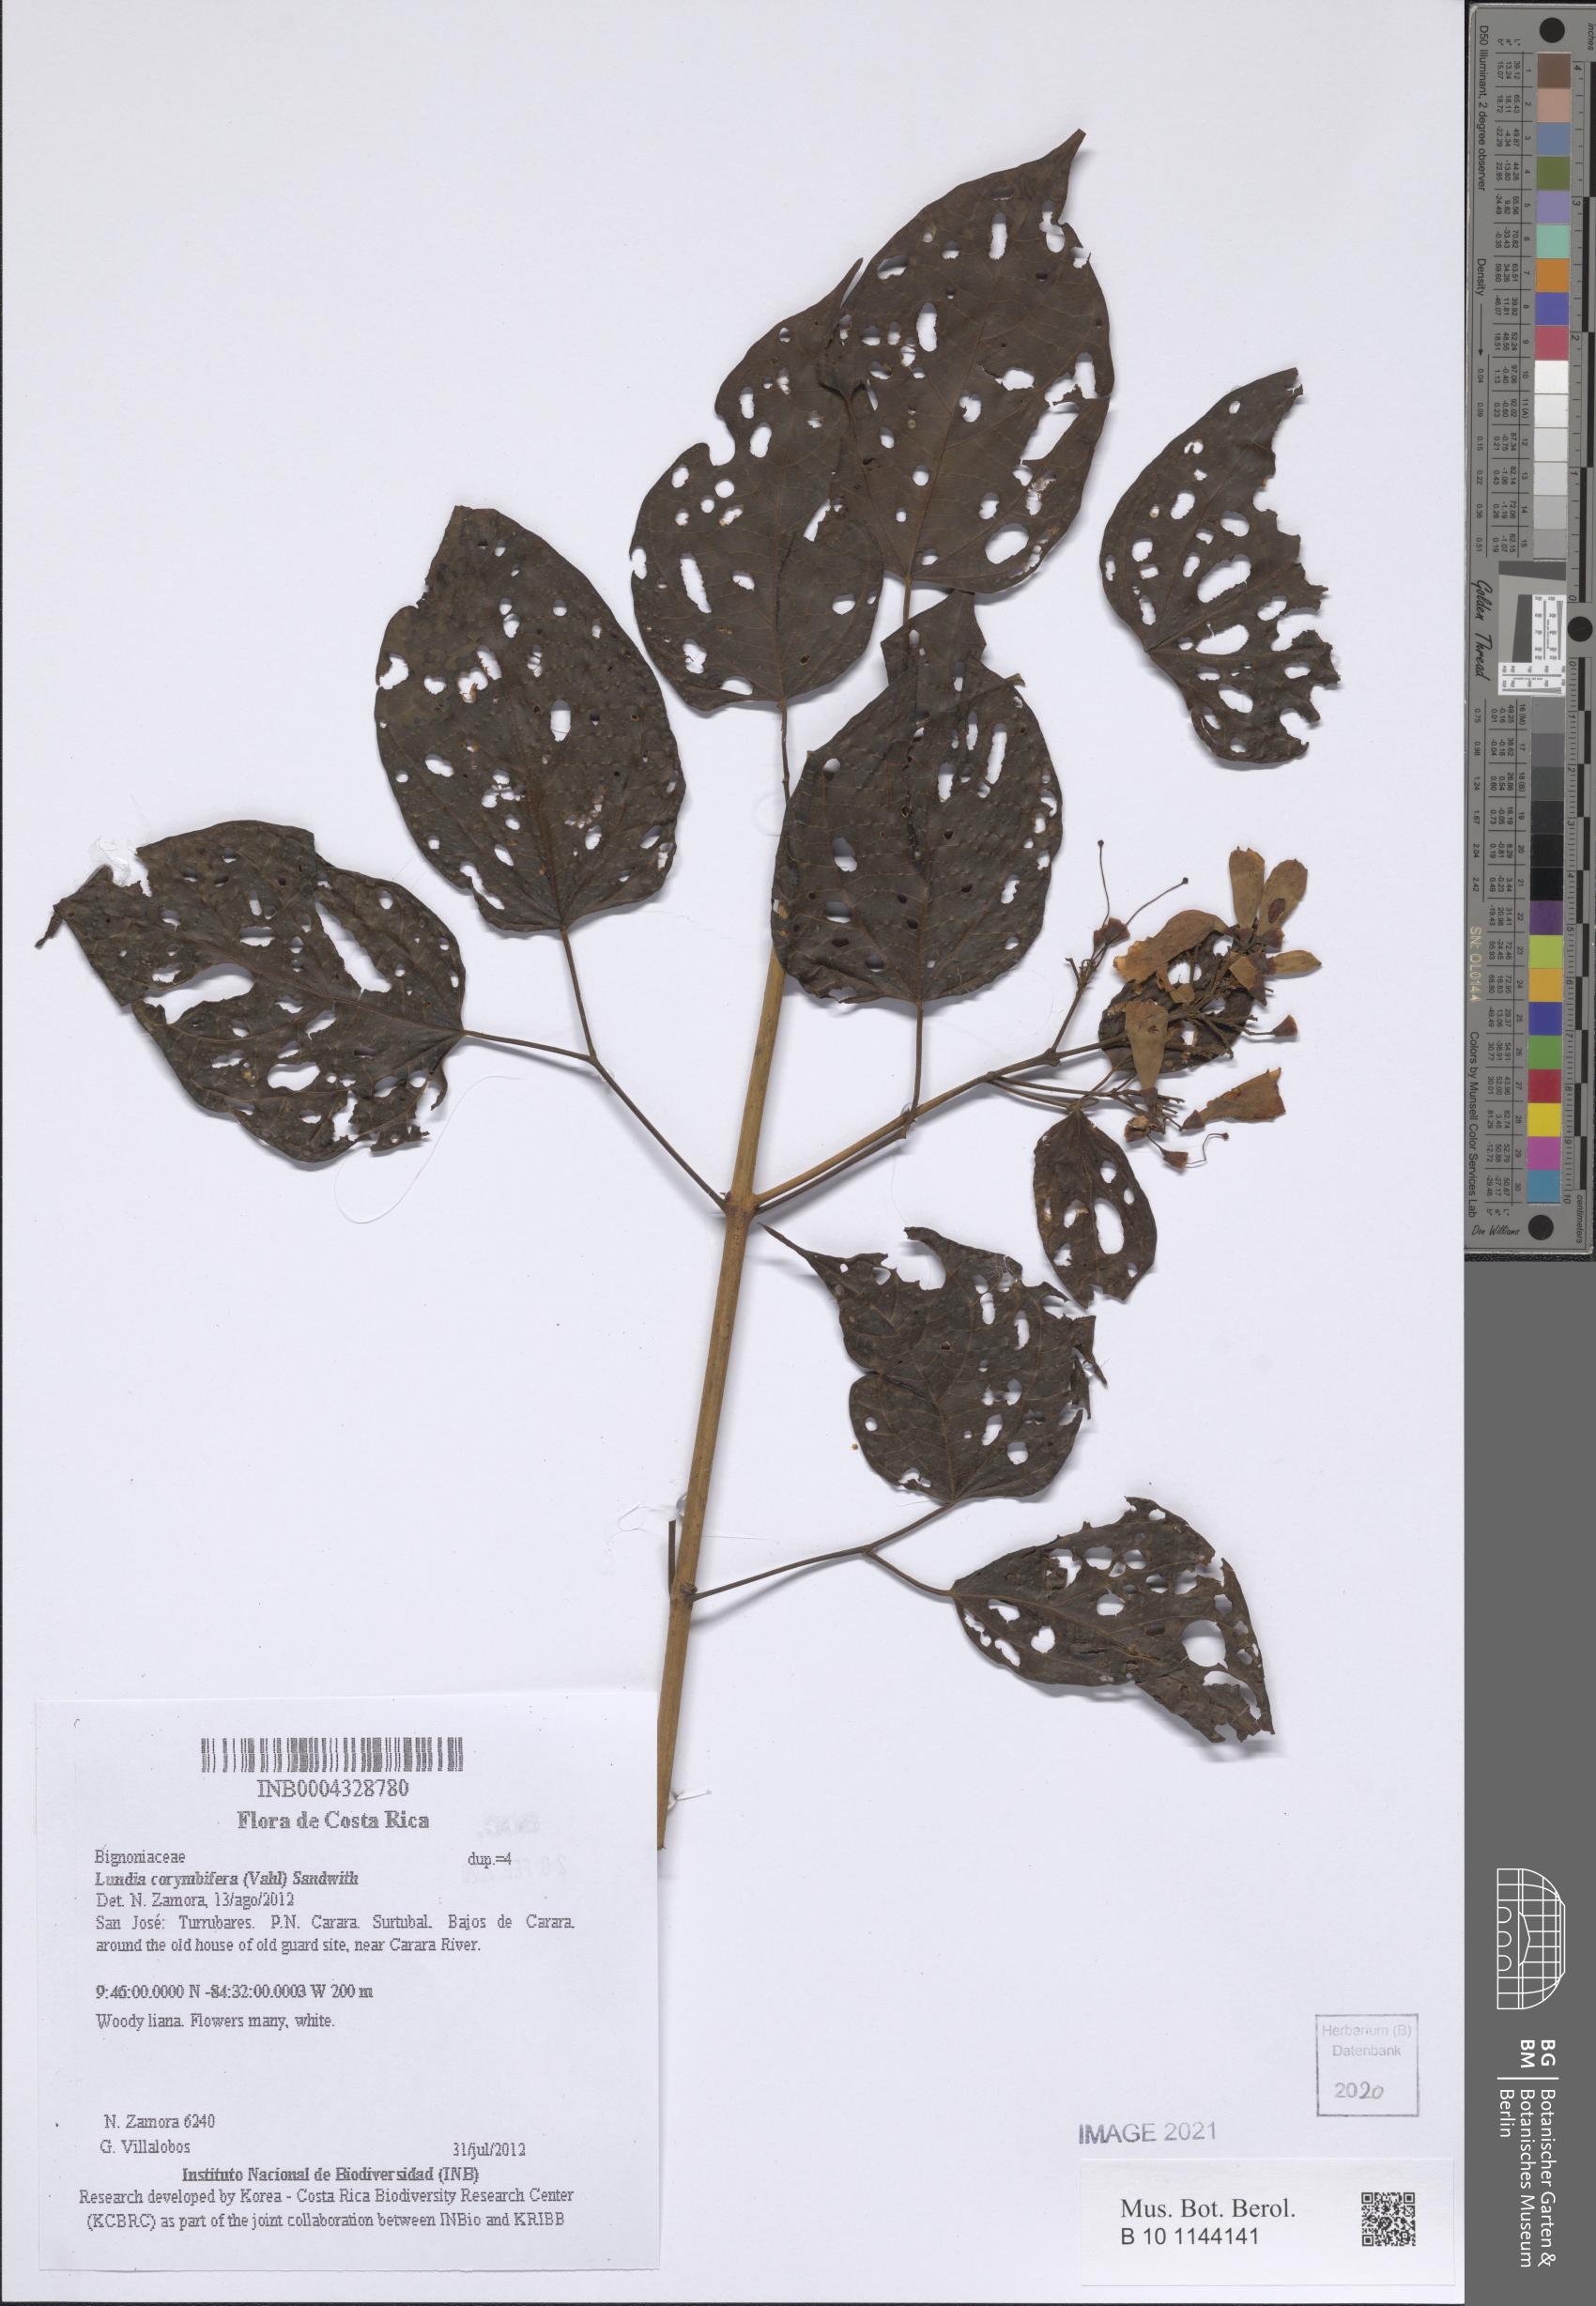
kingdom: Plantae
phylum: Tracheophyta
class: Magnoliopsida
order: Lamiales
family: Bignoniaceae
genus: Lundia
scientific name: Lundia corymbifera
